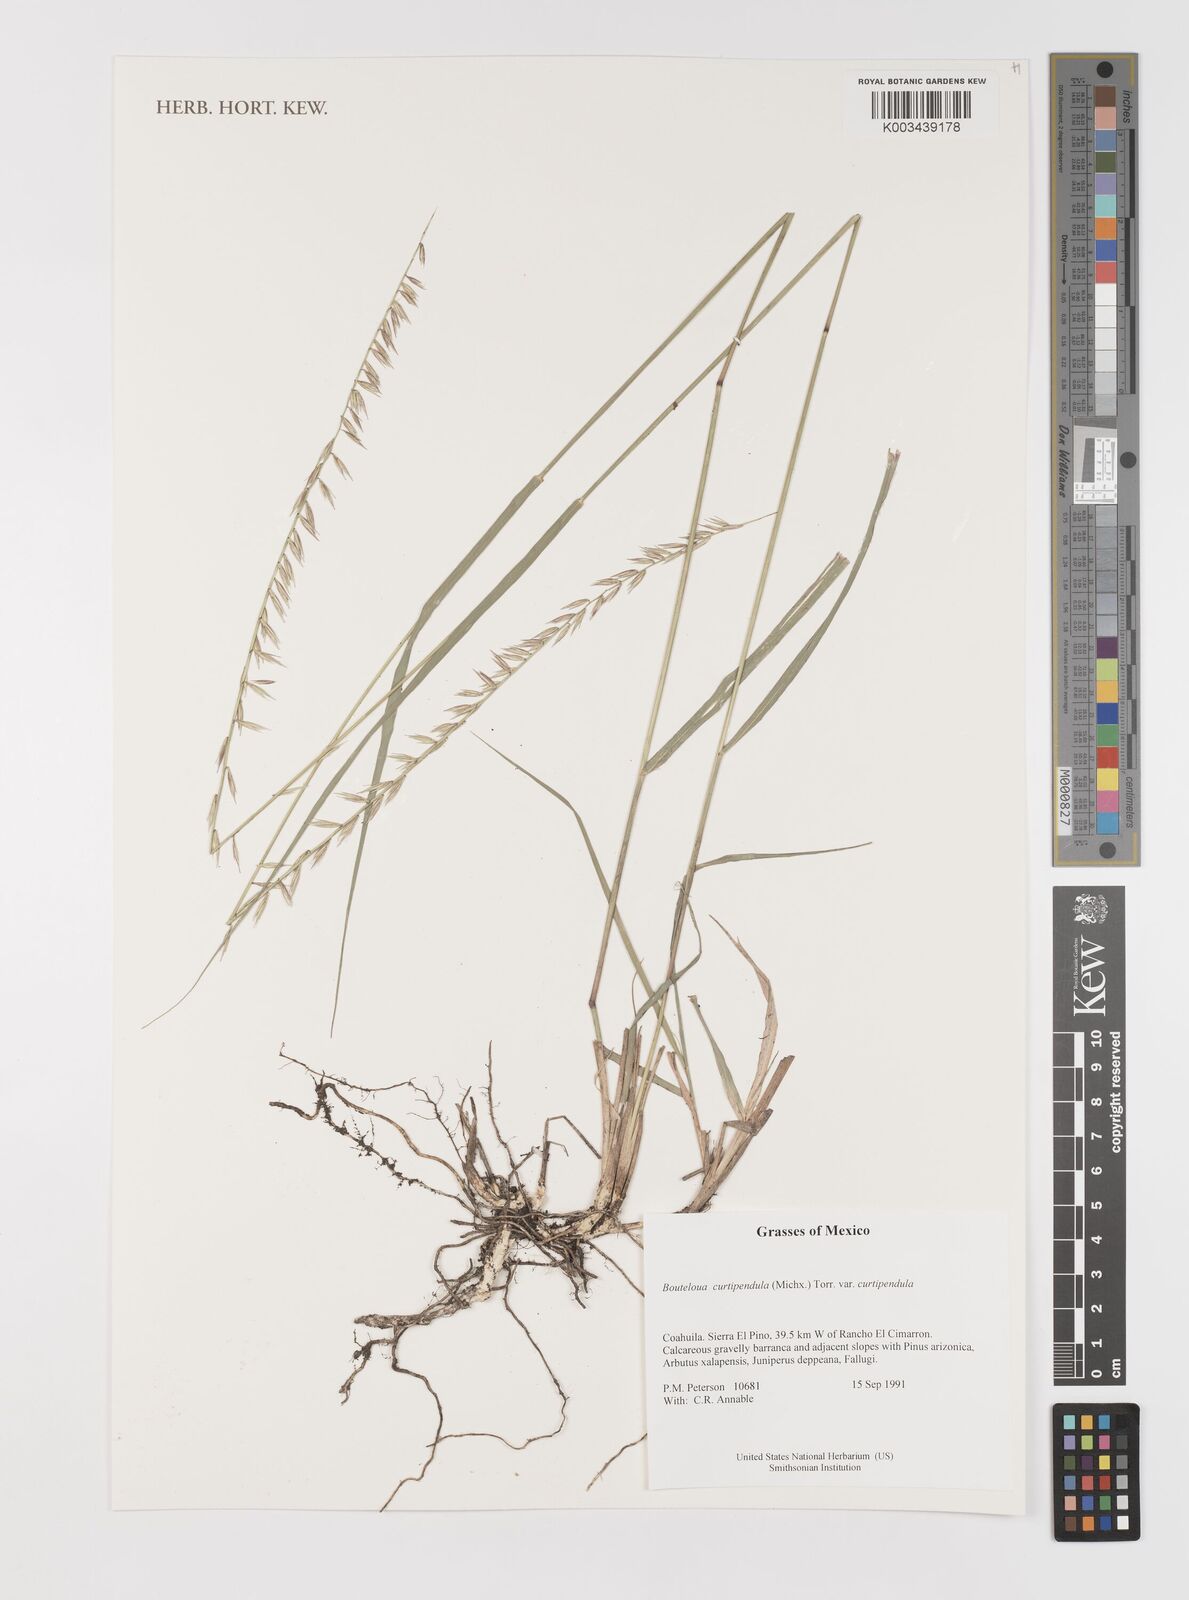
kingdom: Plantae
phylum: Tracheophyta
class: Liliopsida
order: Poales
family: Poaceae
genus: Bouteloua
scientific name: Bouteloua curtipendula
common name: Side-oats grama
